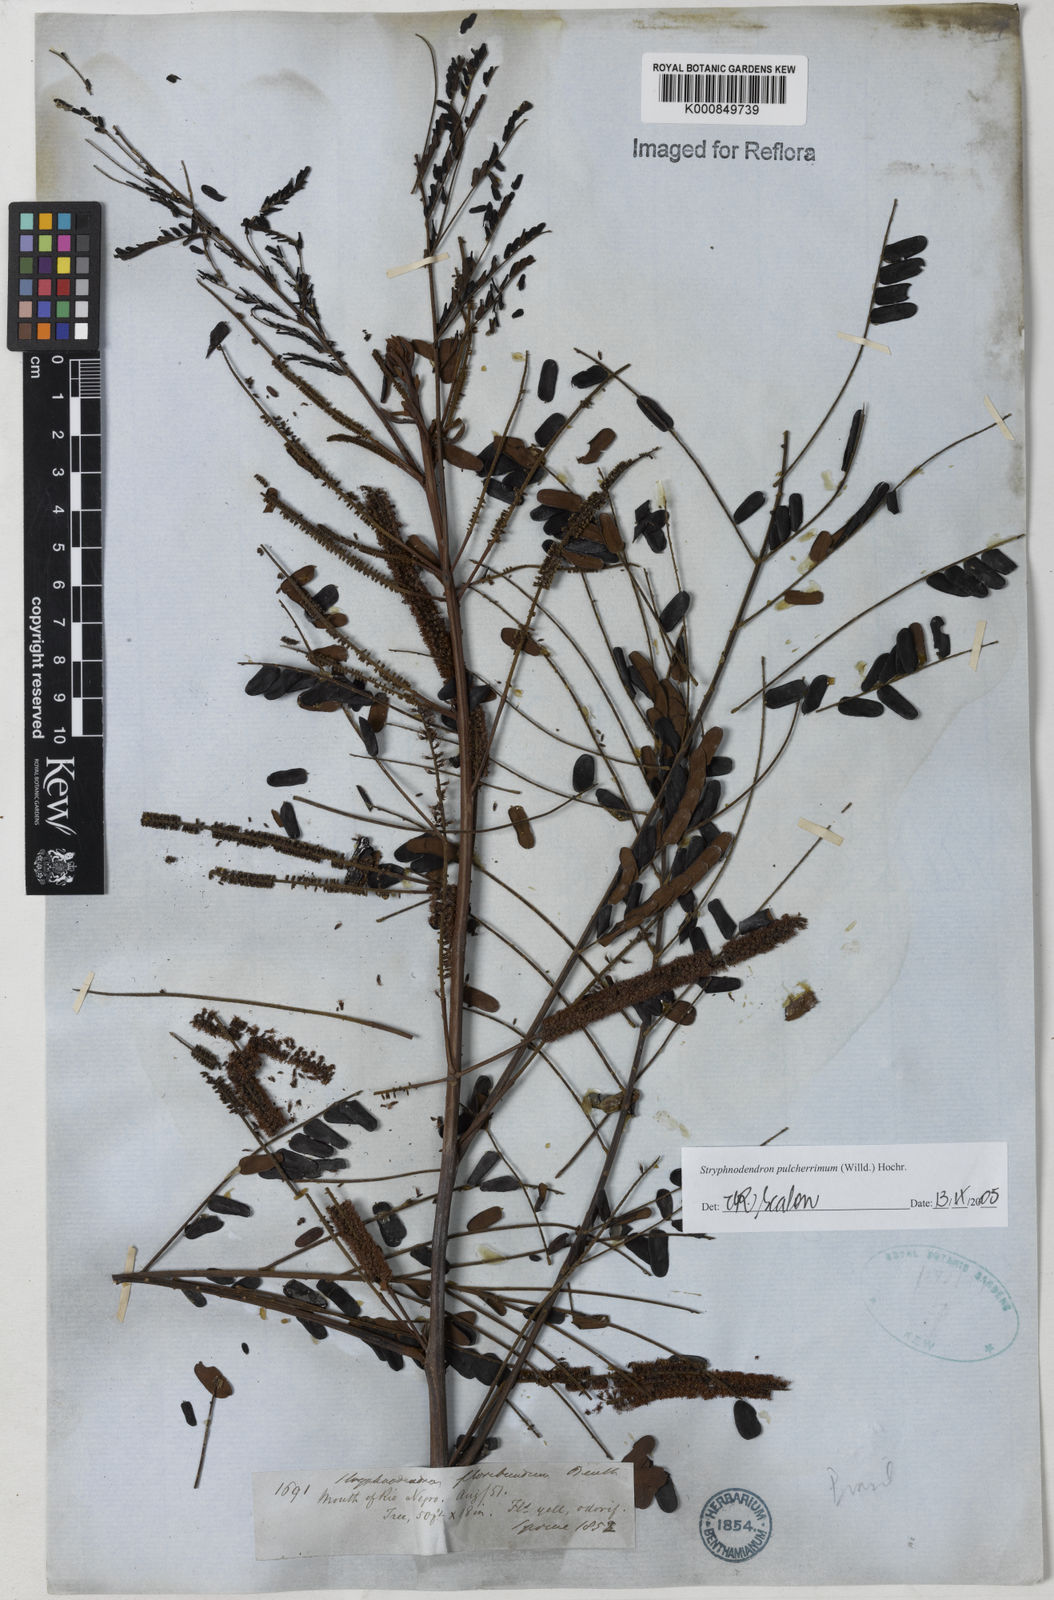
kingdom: Plantae
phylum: Tracheophyta
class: Magnoliopsida
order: Fabales
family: Fabaceae
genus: Stryphnodendron
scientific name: Stryphnodendron pulcherrimum
